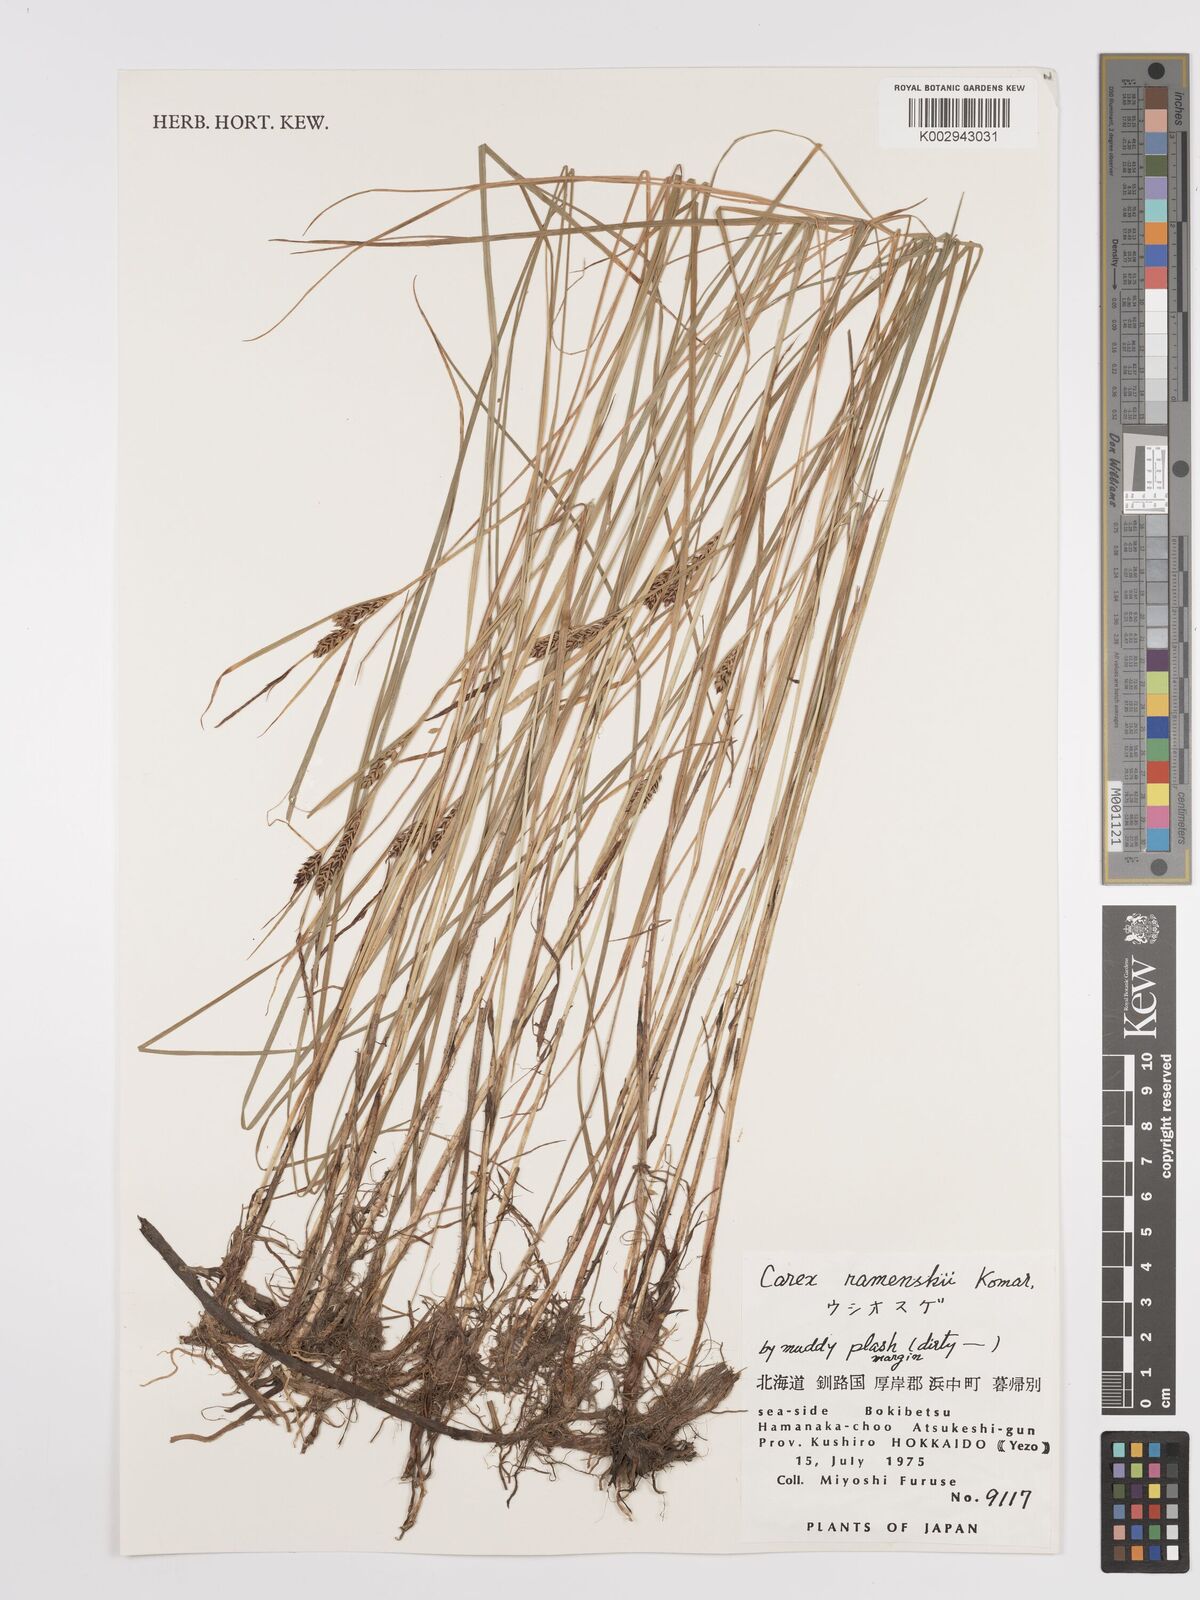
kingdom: Plantae
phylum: Tracheophyta
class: Liliopsida
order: Poales
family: Cyperaceae
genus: Carex
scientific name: Carex ramenskii
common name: Ramensk's sedge
